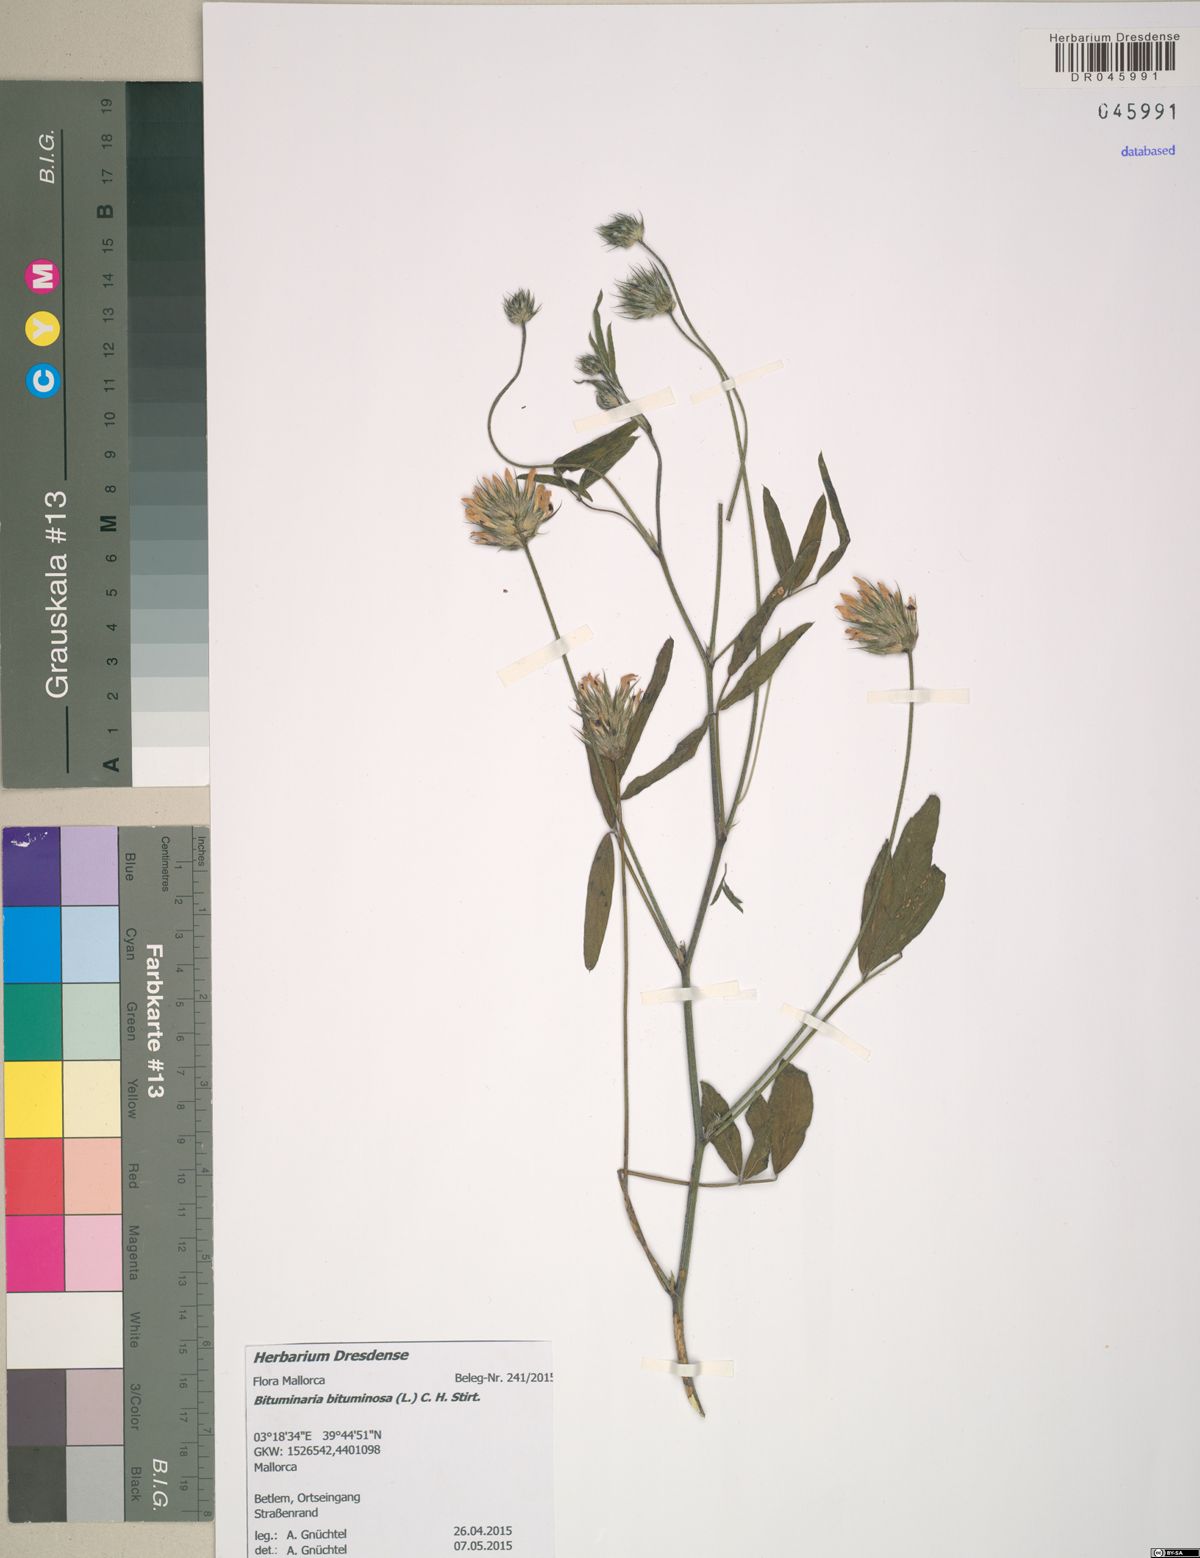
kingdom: Plantae
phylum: Tracheophyta
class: Magnoliopsida
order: Fabales
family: Fabaceae
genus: Bituminaria
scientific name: Bituminaria bituminosa
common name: Arabian pea
